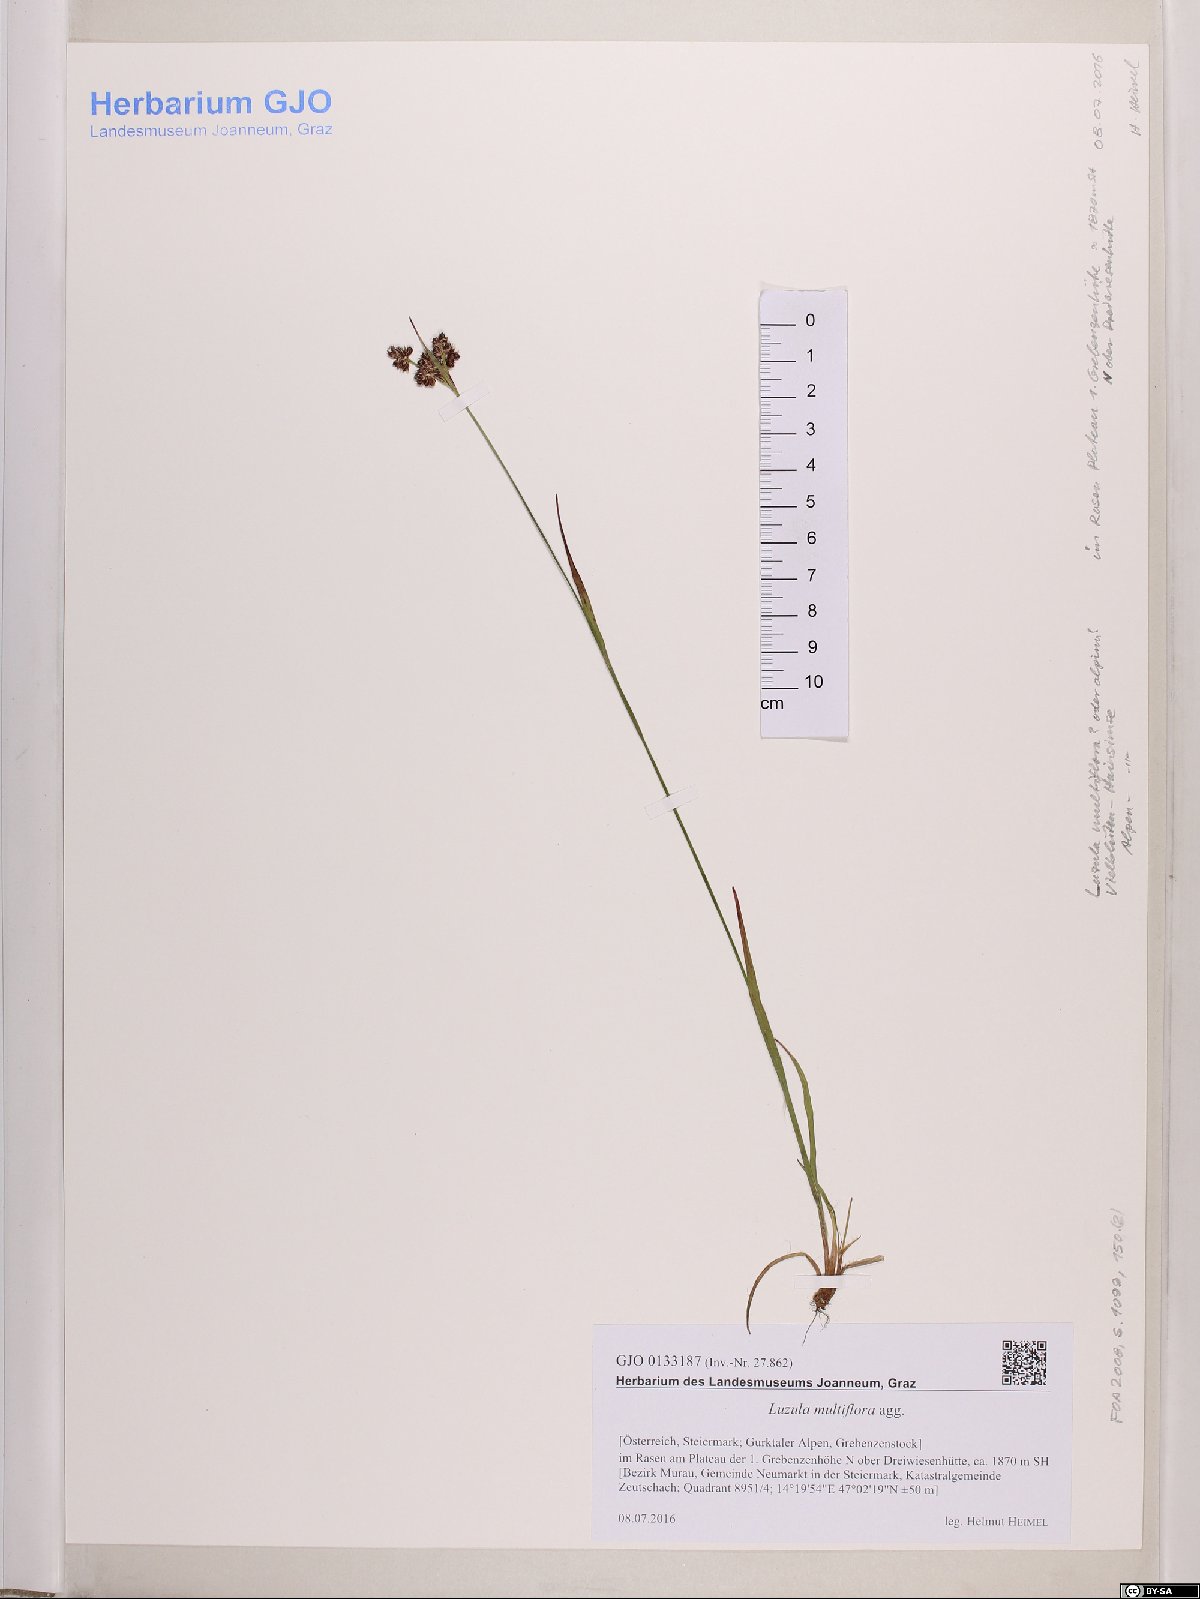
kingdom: Plantae
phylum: Tracheophyta
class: Liliopsida
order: Poales
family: Juncaceae
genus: Luzula
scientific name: Luzula multiflora
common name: Heath wood-rush
